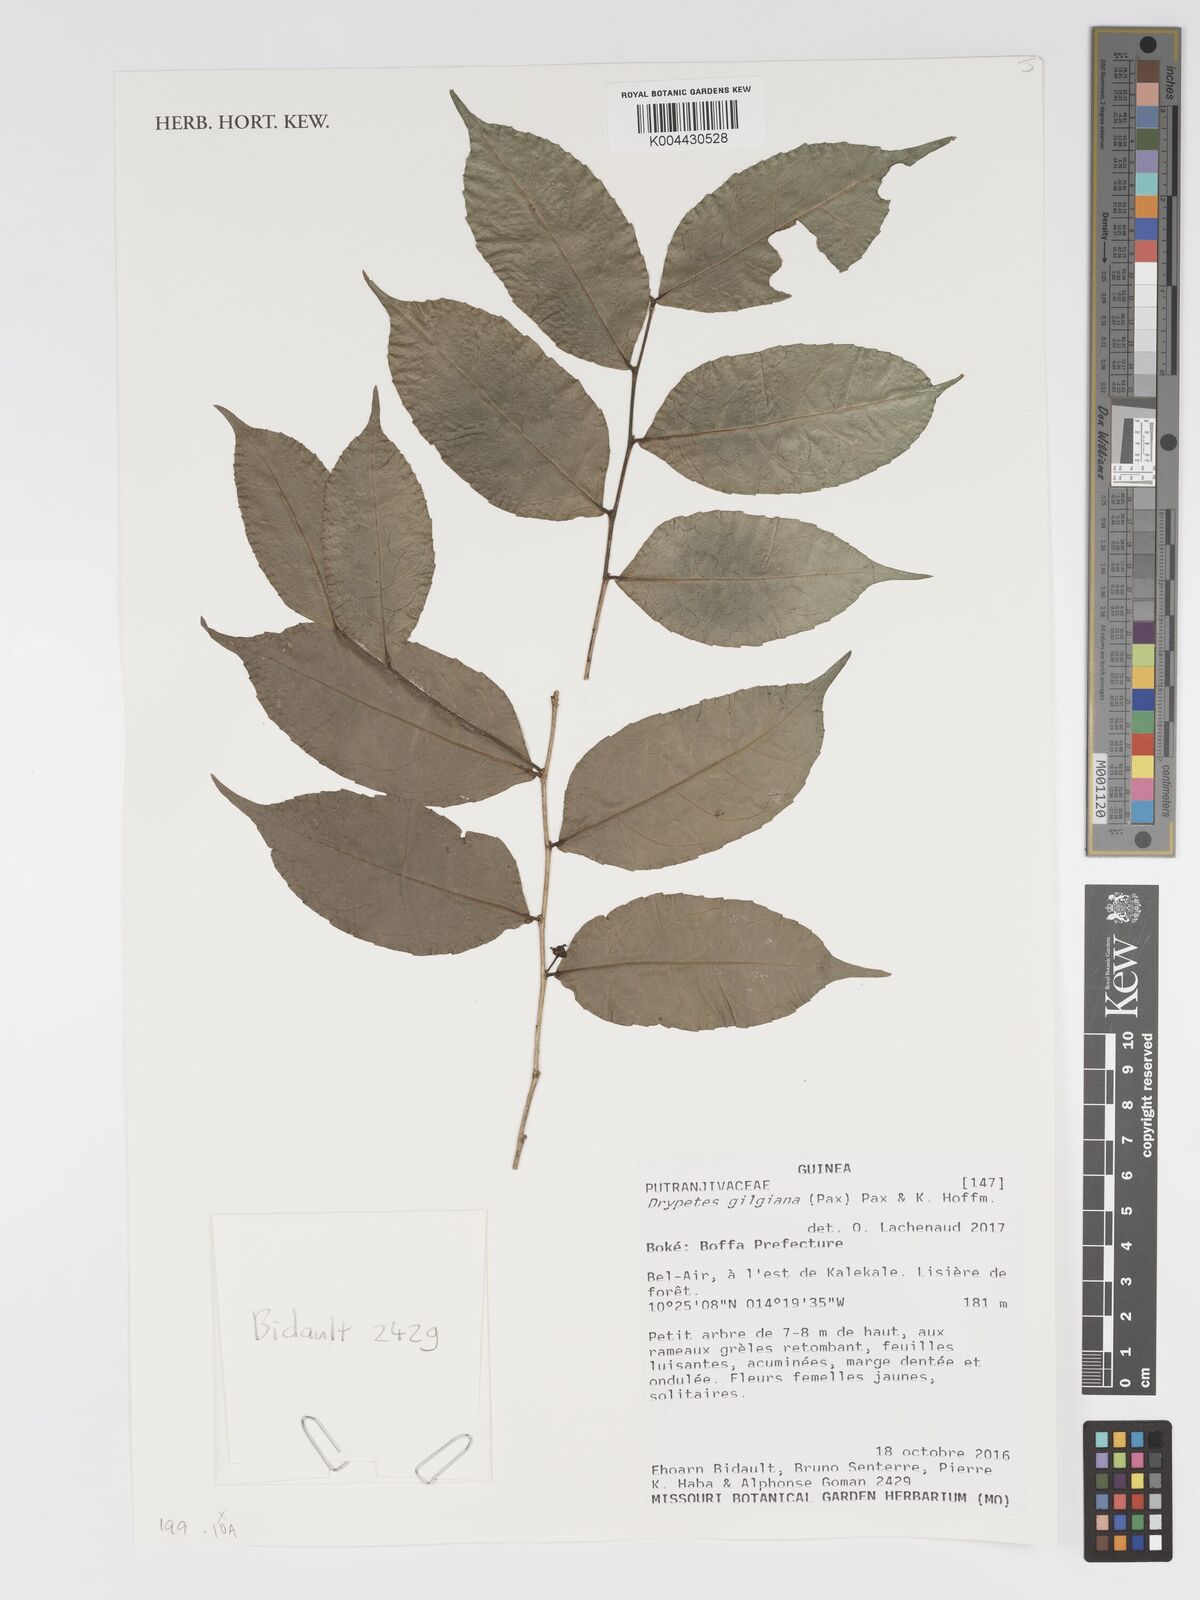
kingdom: Plantae
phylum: Tracheophyta
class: Magnoliopsida
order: Malpighiales
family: Putranjivaceae
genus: Drypetes
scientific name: Drypetes gilgiana
